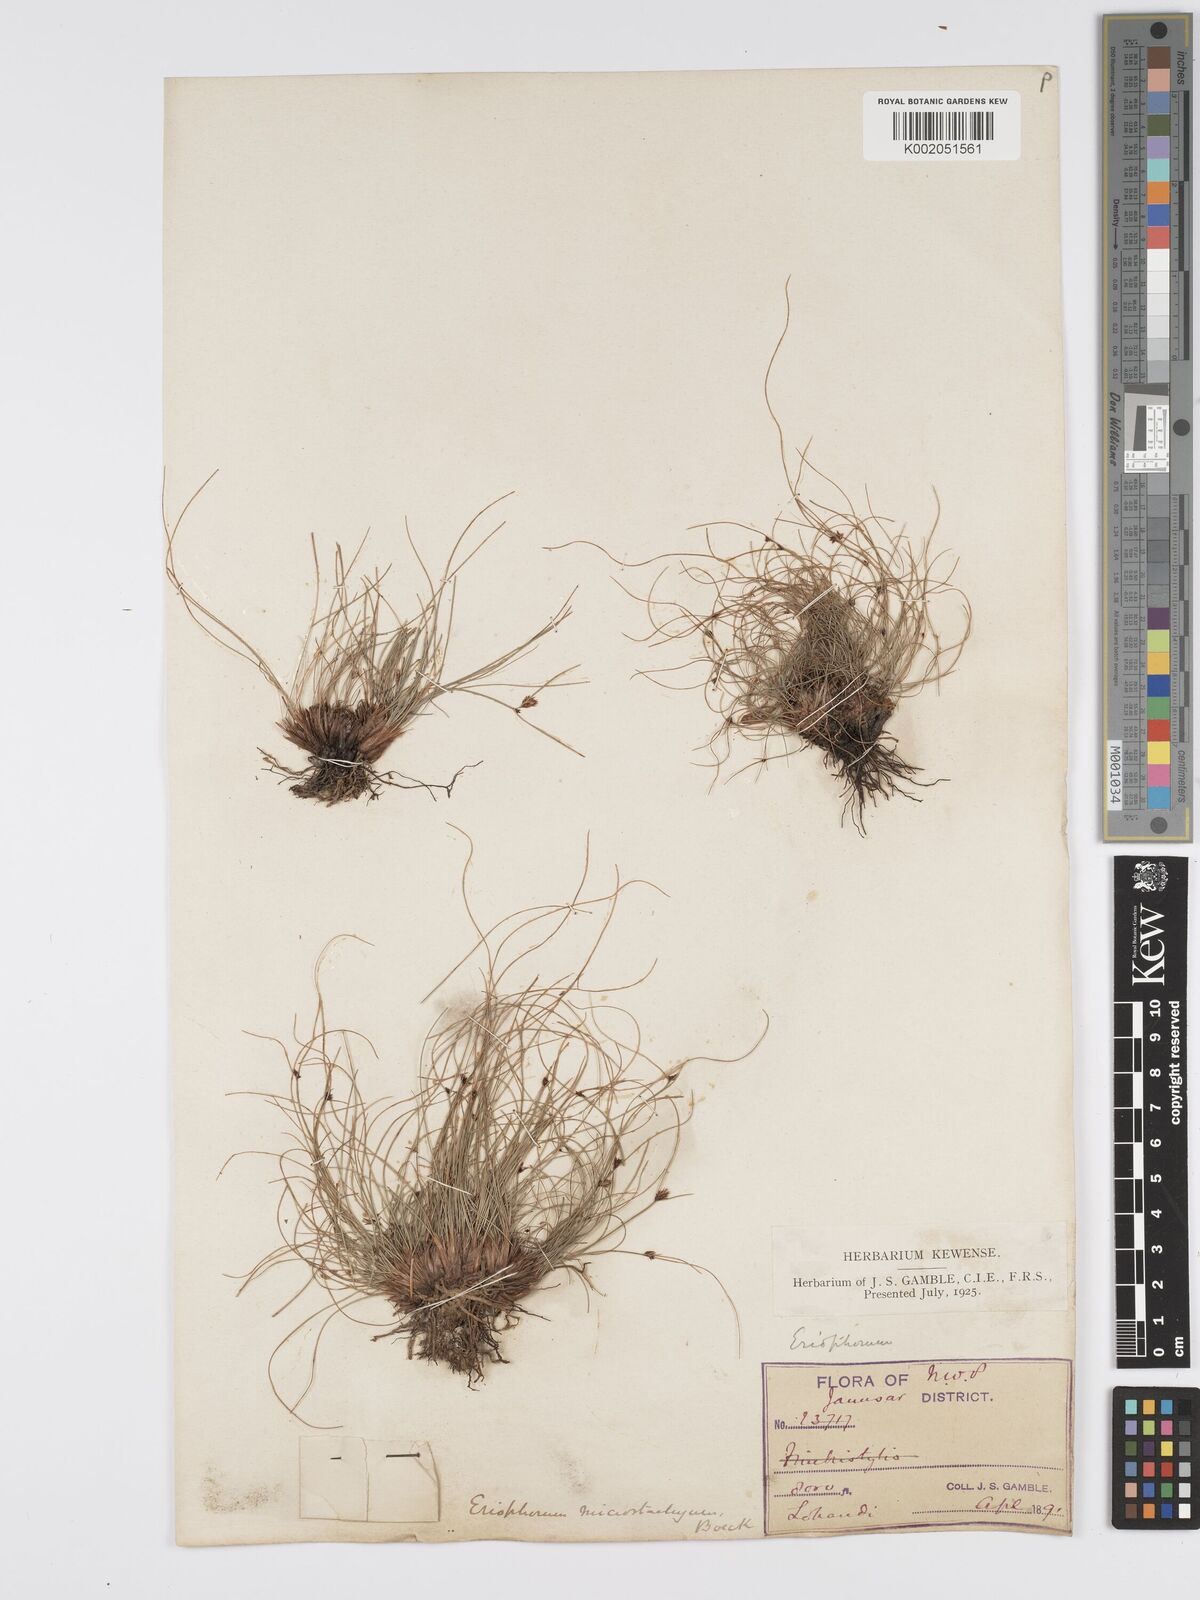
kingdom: Plantae
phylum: Tracheophyta
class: Liliopsida
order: Poales
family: Cyperaceae
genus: Erioscirpus
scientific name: Erioscirpus microstachyus
